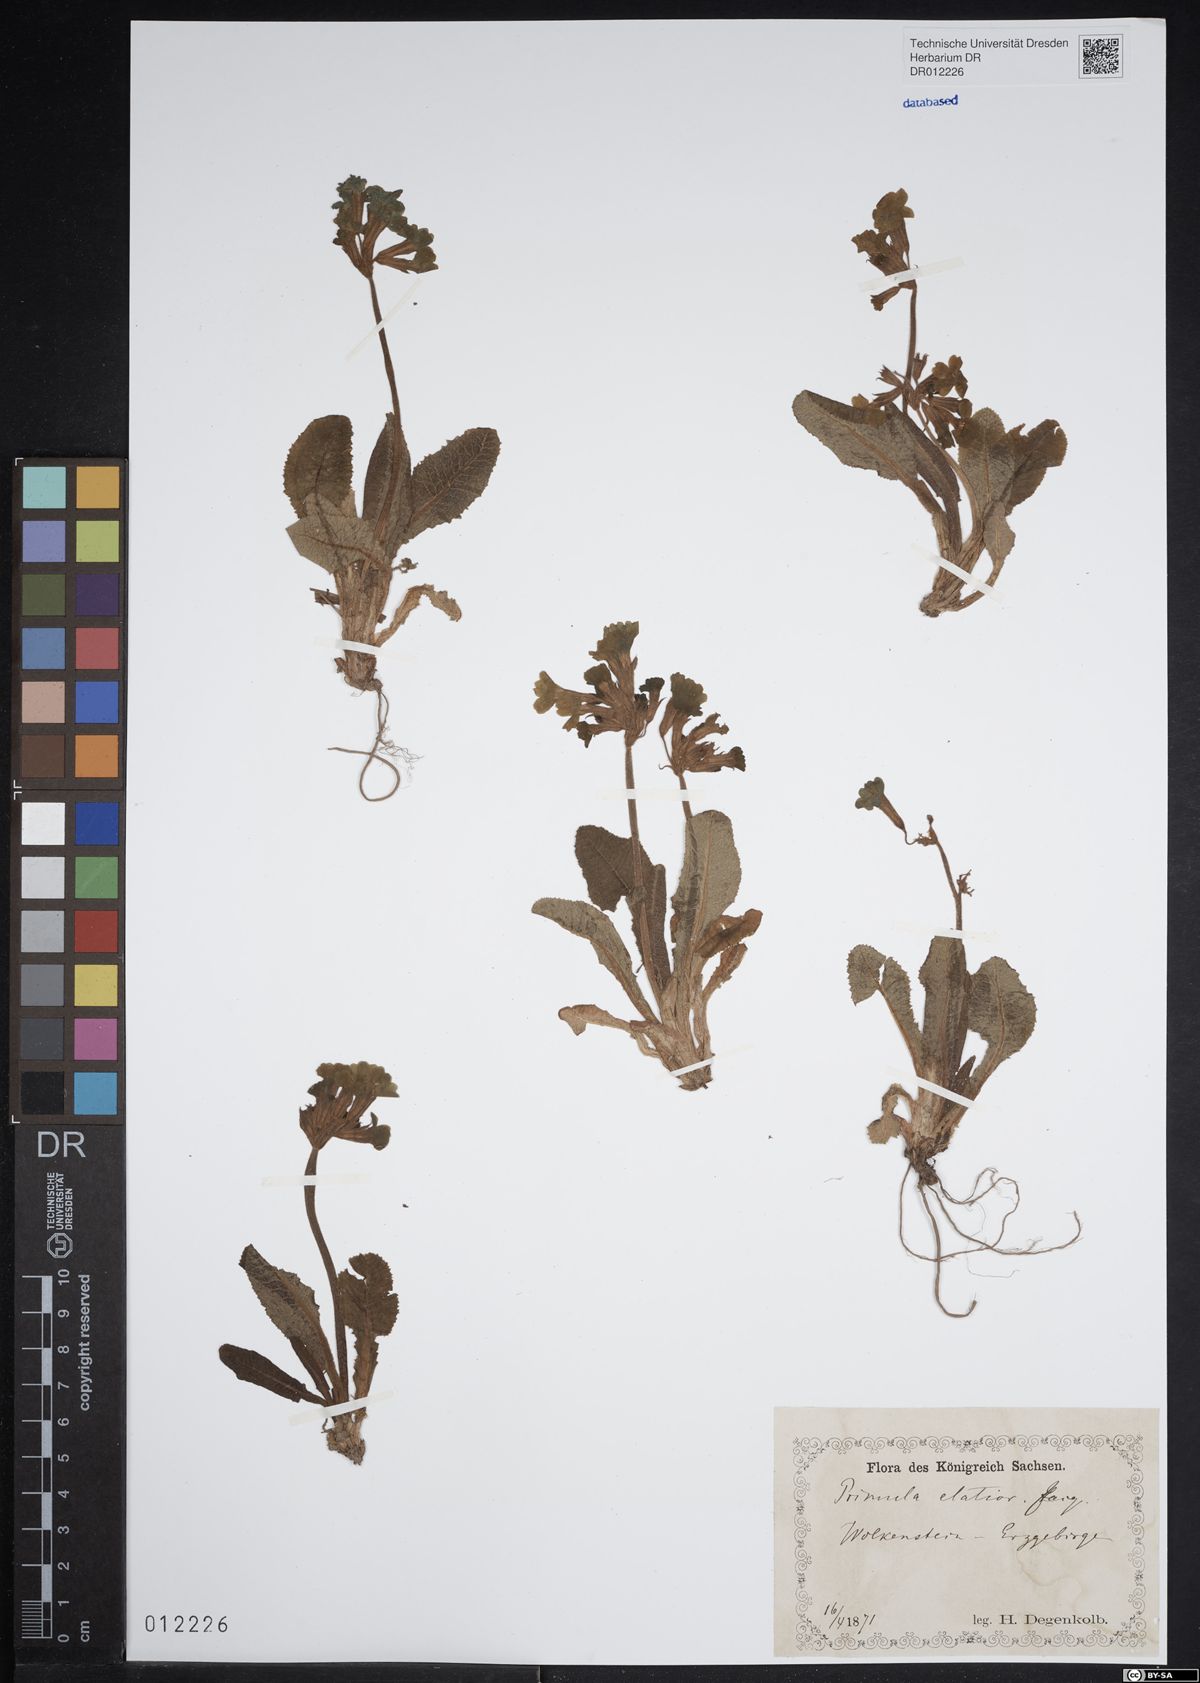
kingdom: Plantae
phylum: Tracheophyta
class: Magnoliopsida
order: Ericales
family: Primulaceae
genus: Primula
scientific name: Primula elatior
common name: Oxlip
